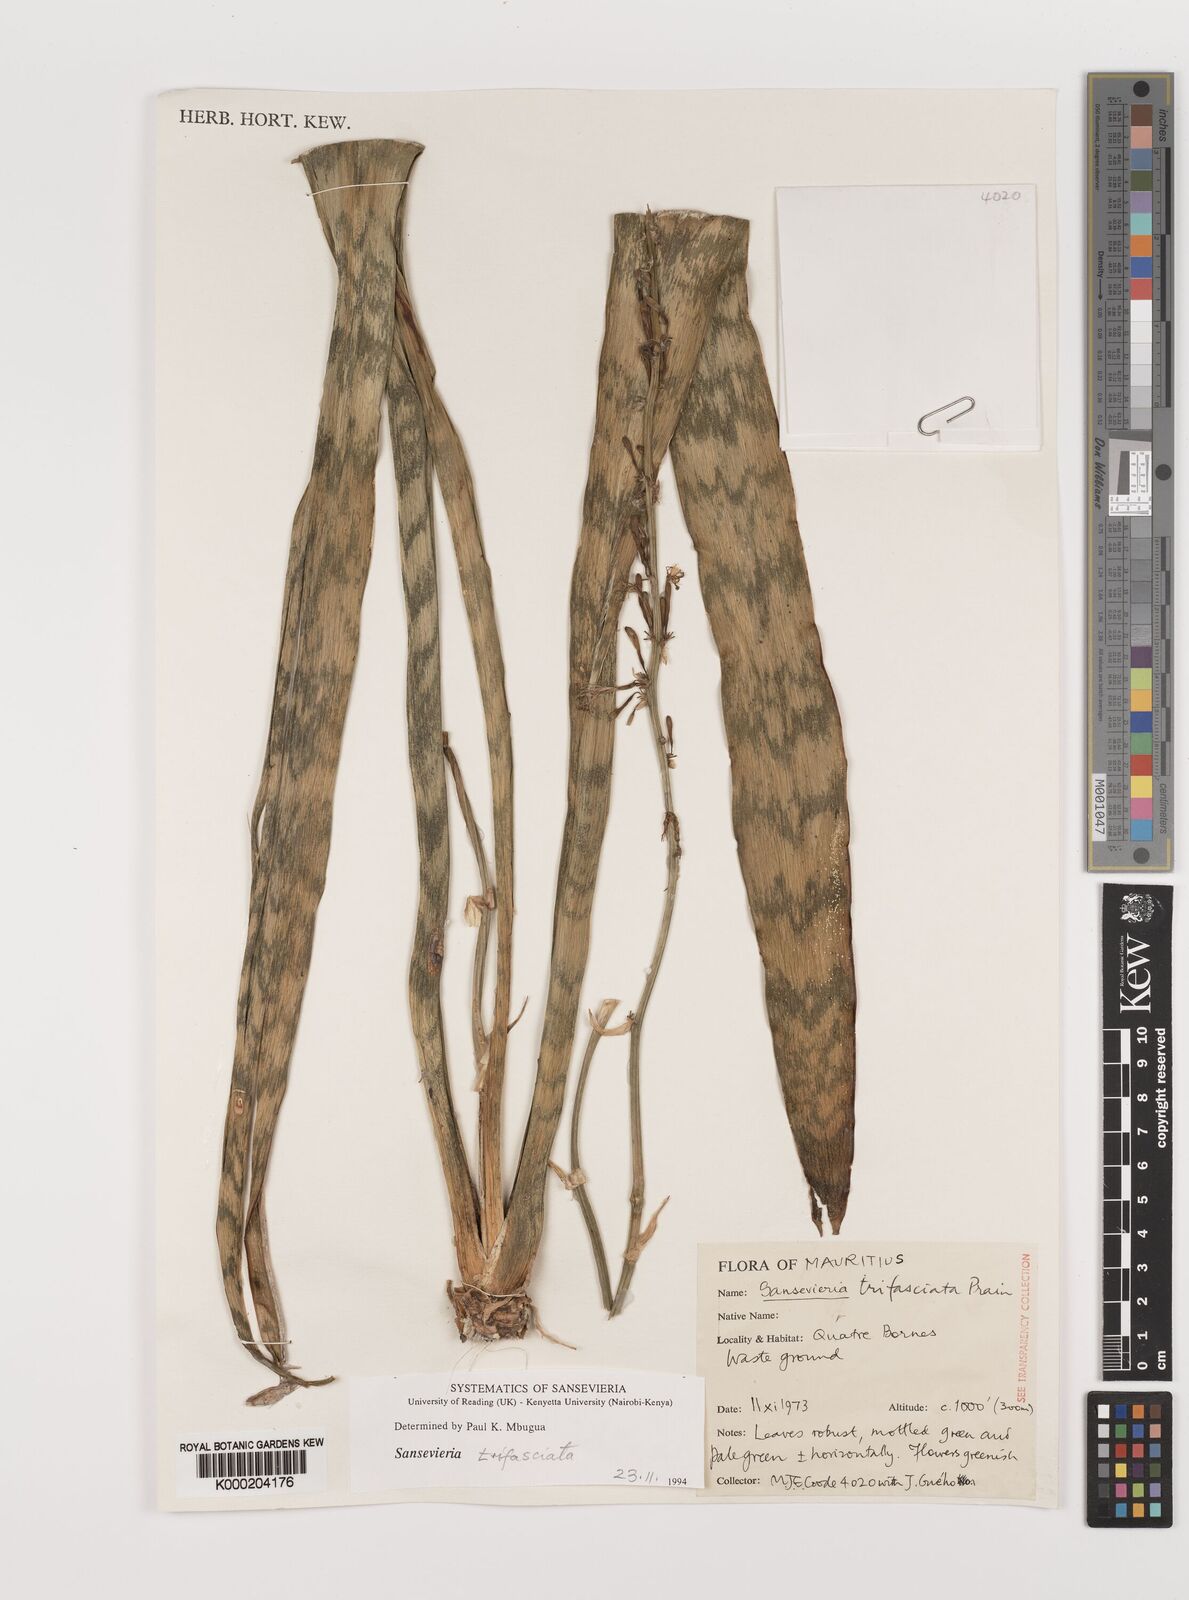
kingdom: Plantae
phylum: Tracheophyta
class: Liliopsida
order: Asparagales
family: Asparagaceae
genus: Dracaena
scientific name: Dracaena trifasciata
